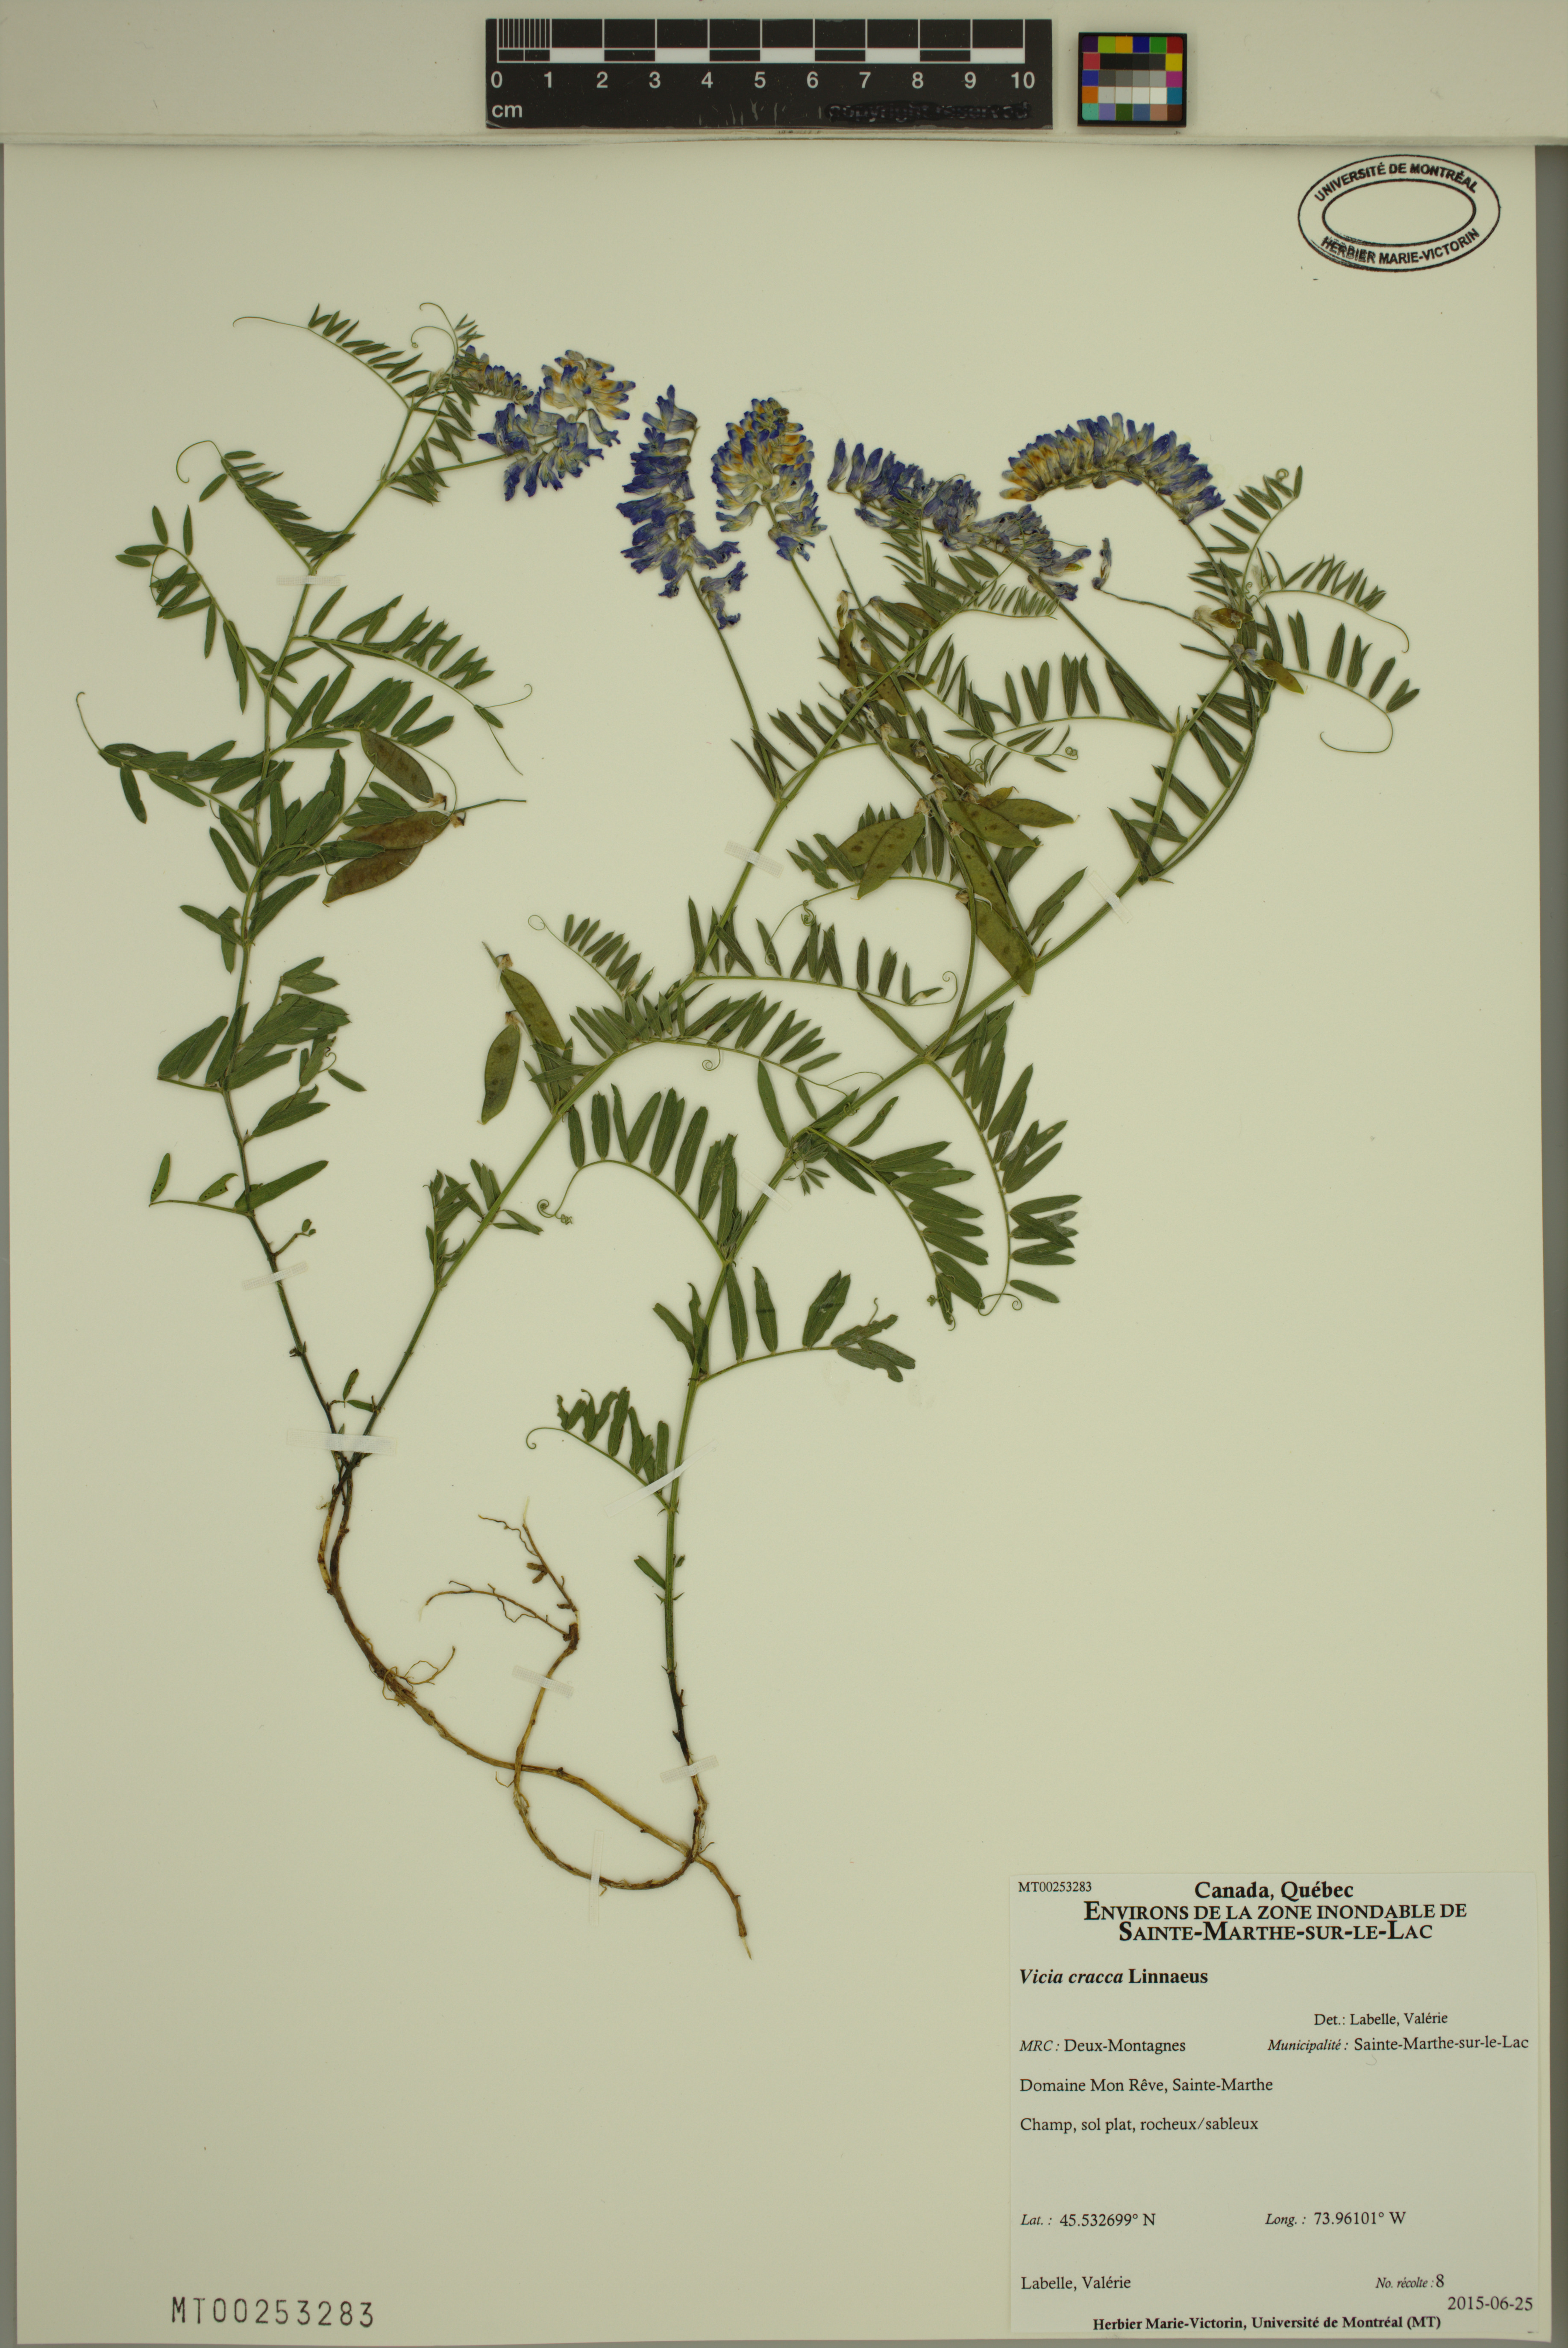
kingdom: Plantae
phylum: Tracheophyta
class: Magnoliopsida
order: Fabales
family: Fabaceae
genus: Vicia
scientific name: Vicia cracca
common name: Bird vetch
